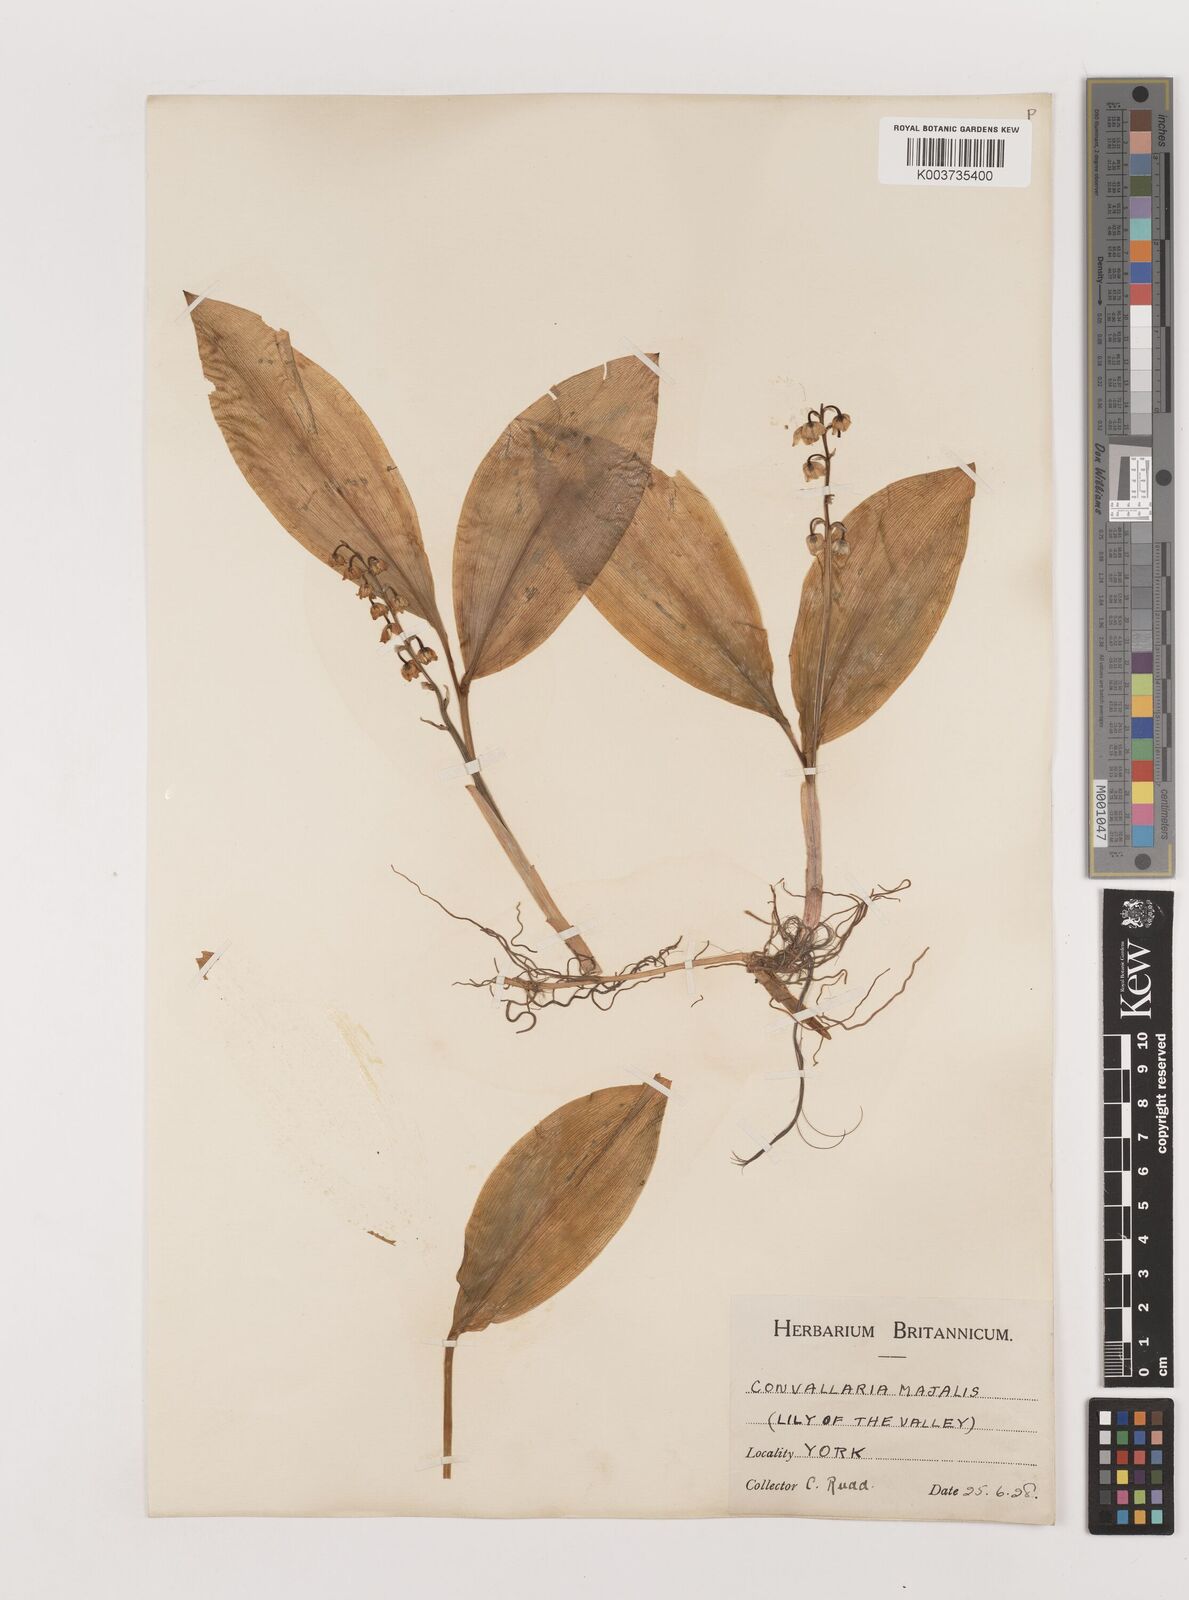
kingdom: Plantae
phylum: Tracheophyta
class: Liliopsida
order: Asparagales
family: Asparagaceae
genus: Convallaria
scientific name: Convallaria majalis
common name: Lily-of-the-valley
